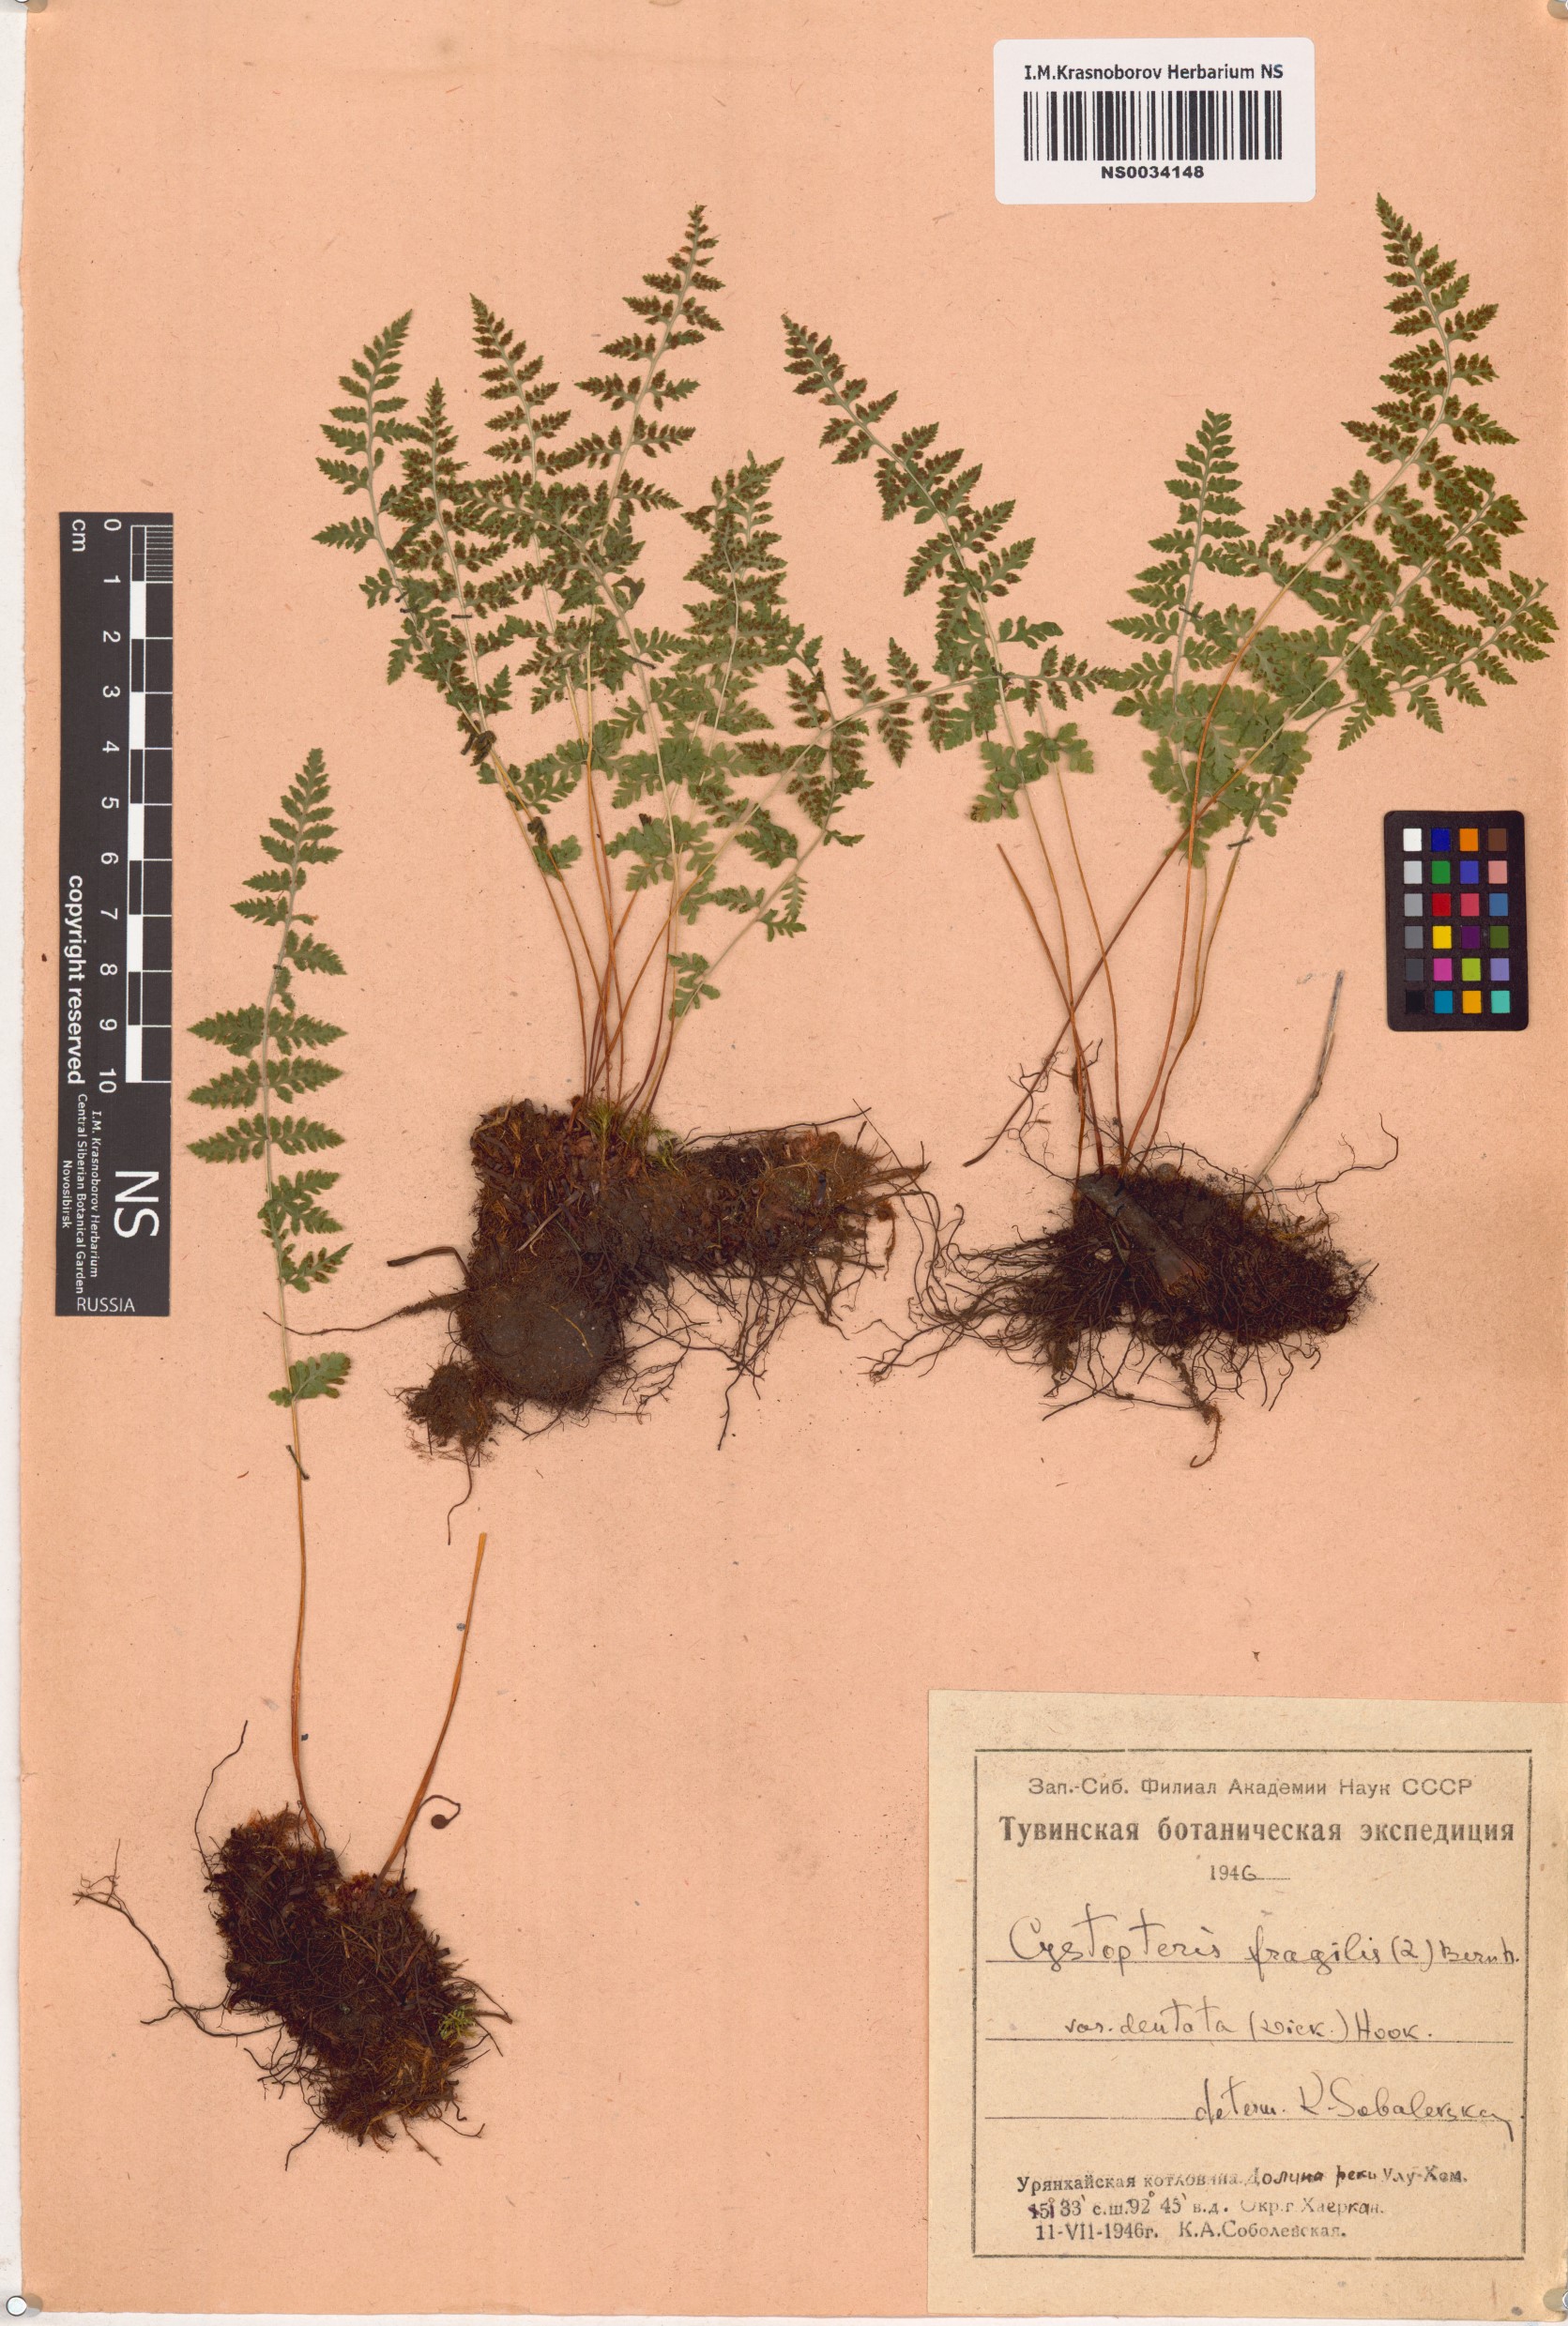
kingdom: Plantae
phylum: Tracheophyta
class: Polypodiopsida
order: Polypodiales
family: Cystopteridaceae
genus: Cystopteris
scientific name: Cystopteris fragilis
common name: Brittle bladder fern
